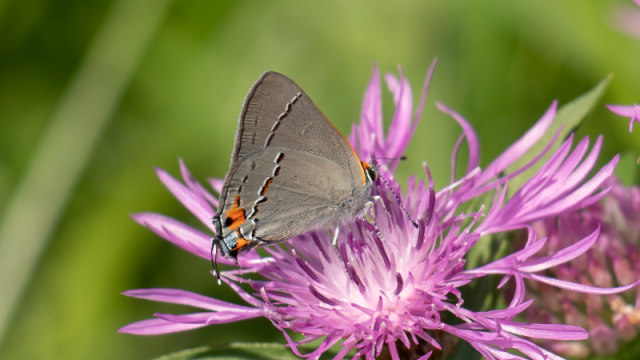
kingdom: Animalia
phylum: Arthropoda
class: Insecta
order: Lepidoptera
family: Lycaenidae
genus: Strymon
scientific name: Strymon melinus
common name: Gray Hairstreak
